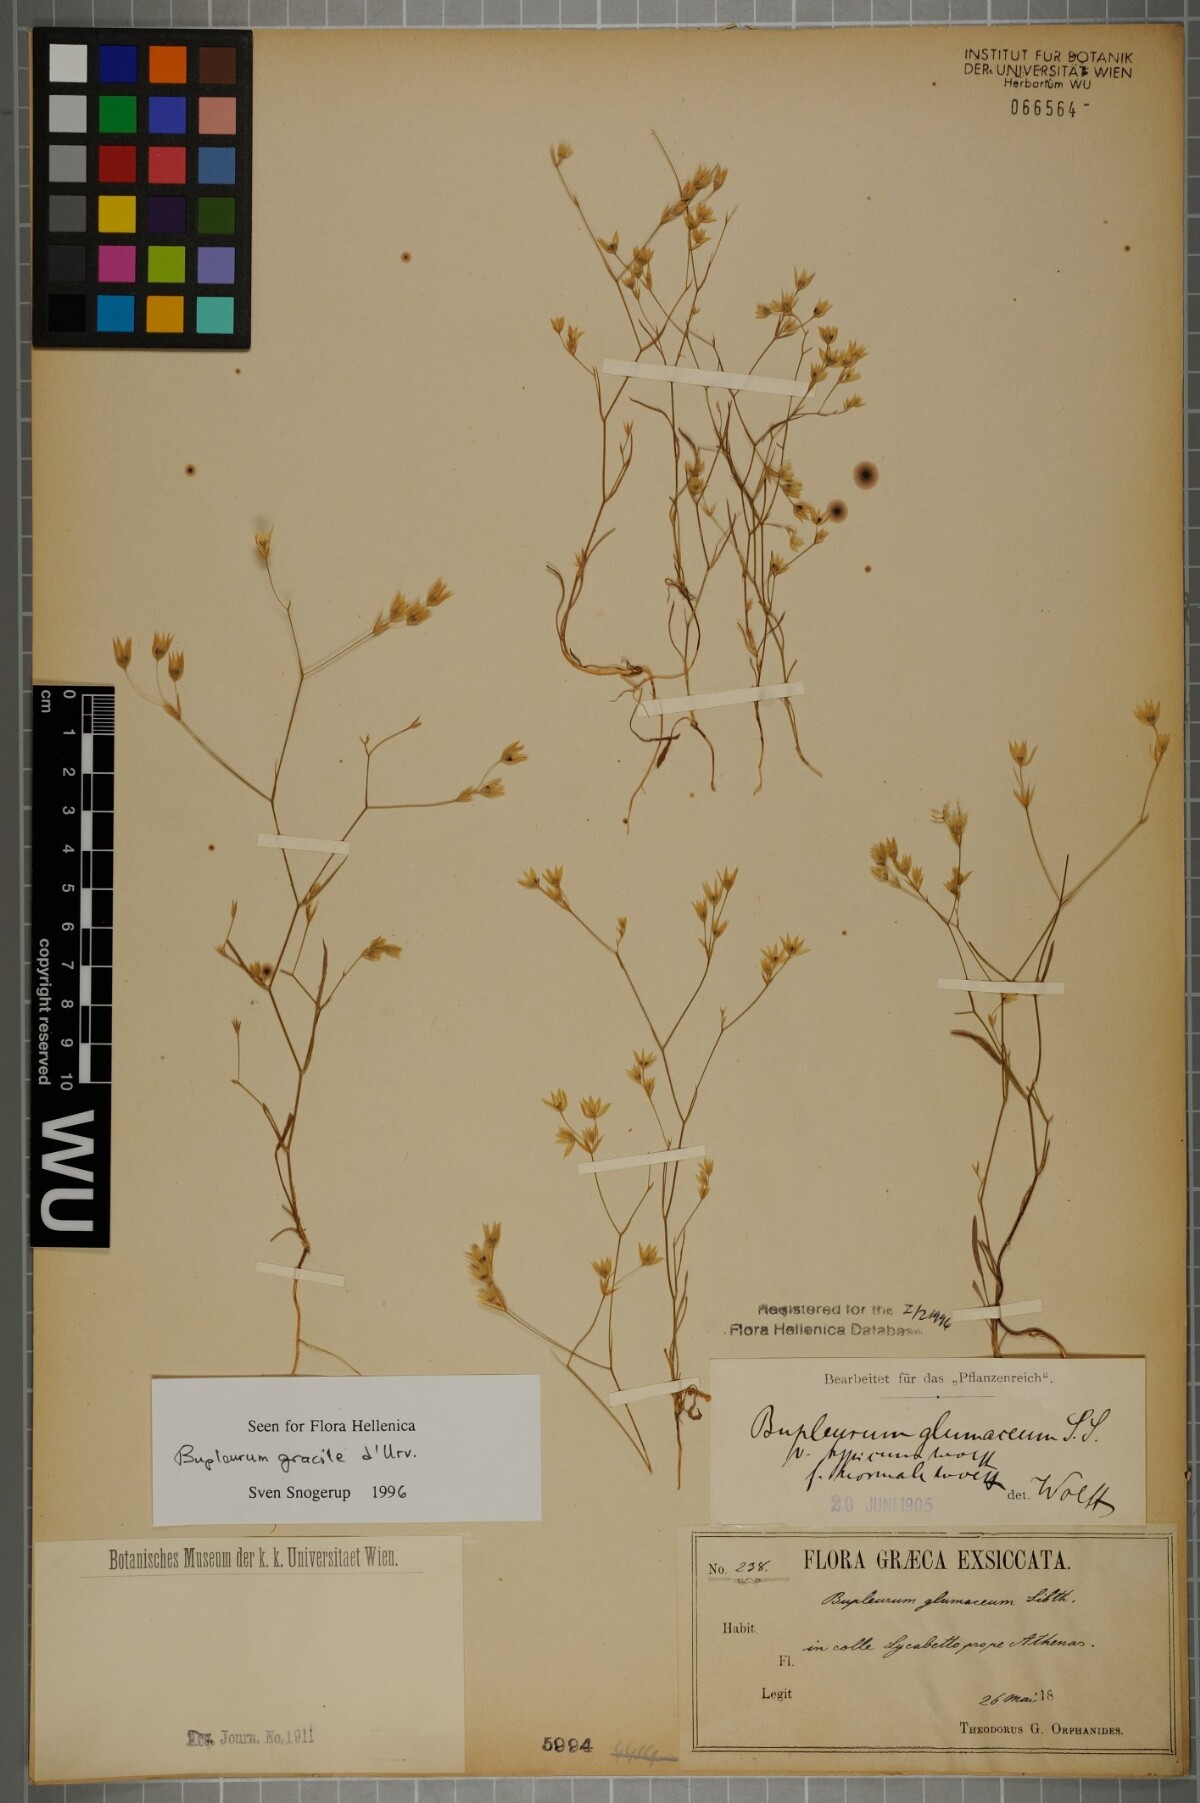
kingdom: Plantae
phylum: Tracheophyta
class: Magnoliopsida
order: Apiales
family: Apiaceae
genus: Bupleurum
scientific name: Bupleurum gracile
